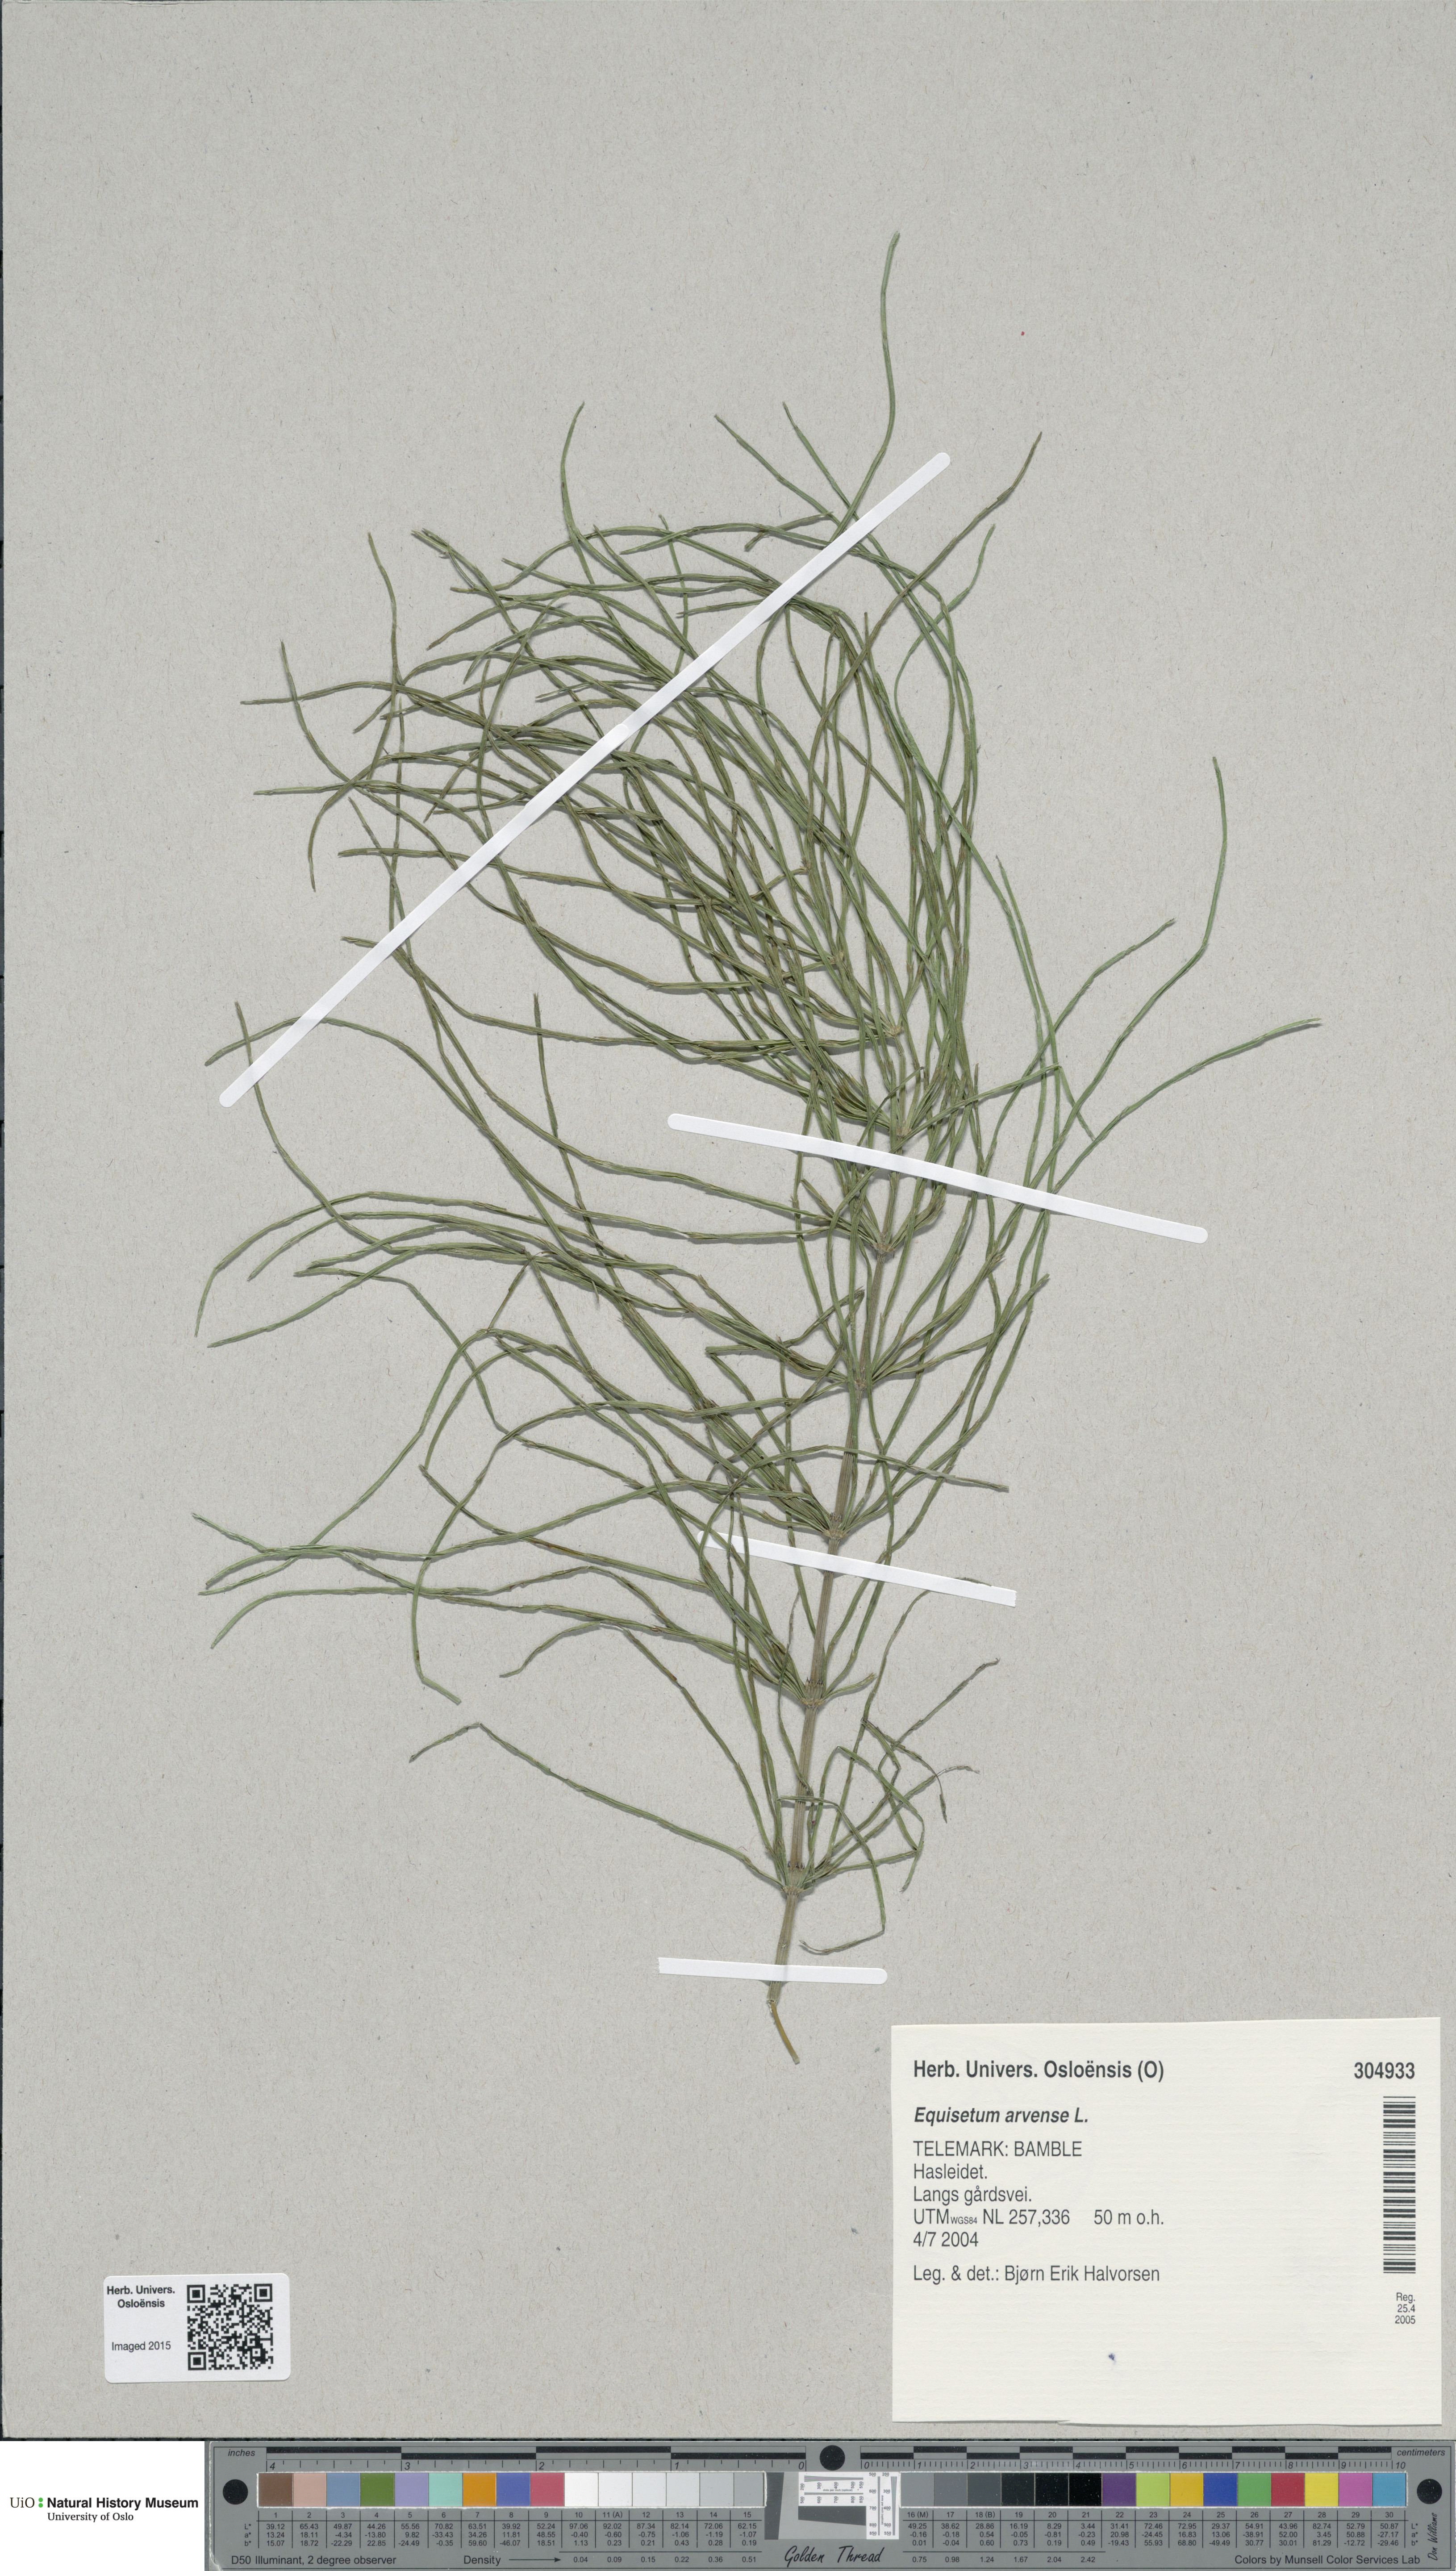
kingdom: Plantae
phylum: Tracheophyta
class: Polypodiopsida
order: Equisetales
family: Equisetaceae
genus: Equisetum
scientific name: Equisetum arvense
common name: Field horsetail
